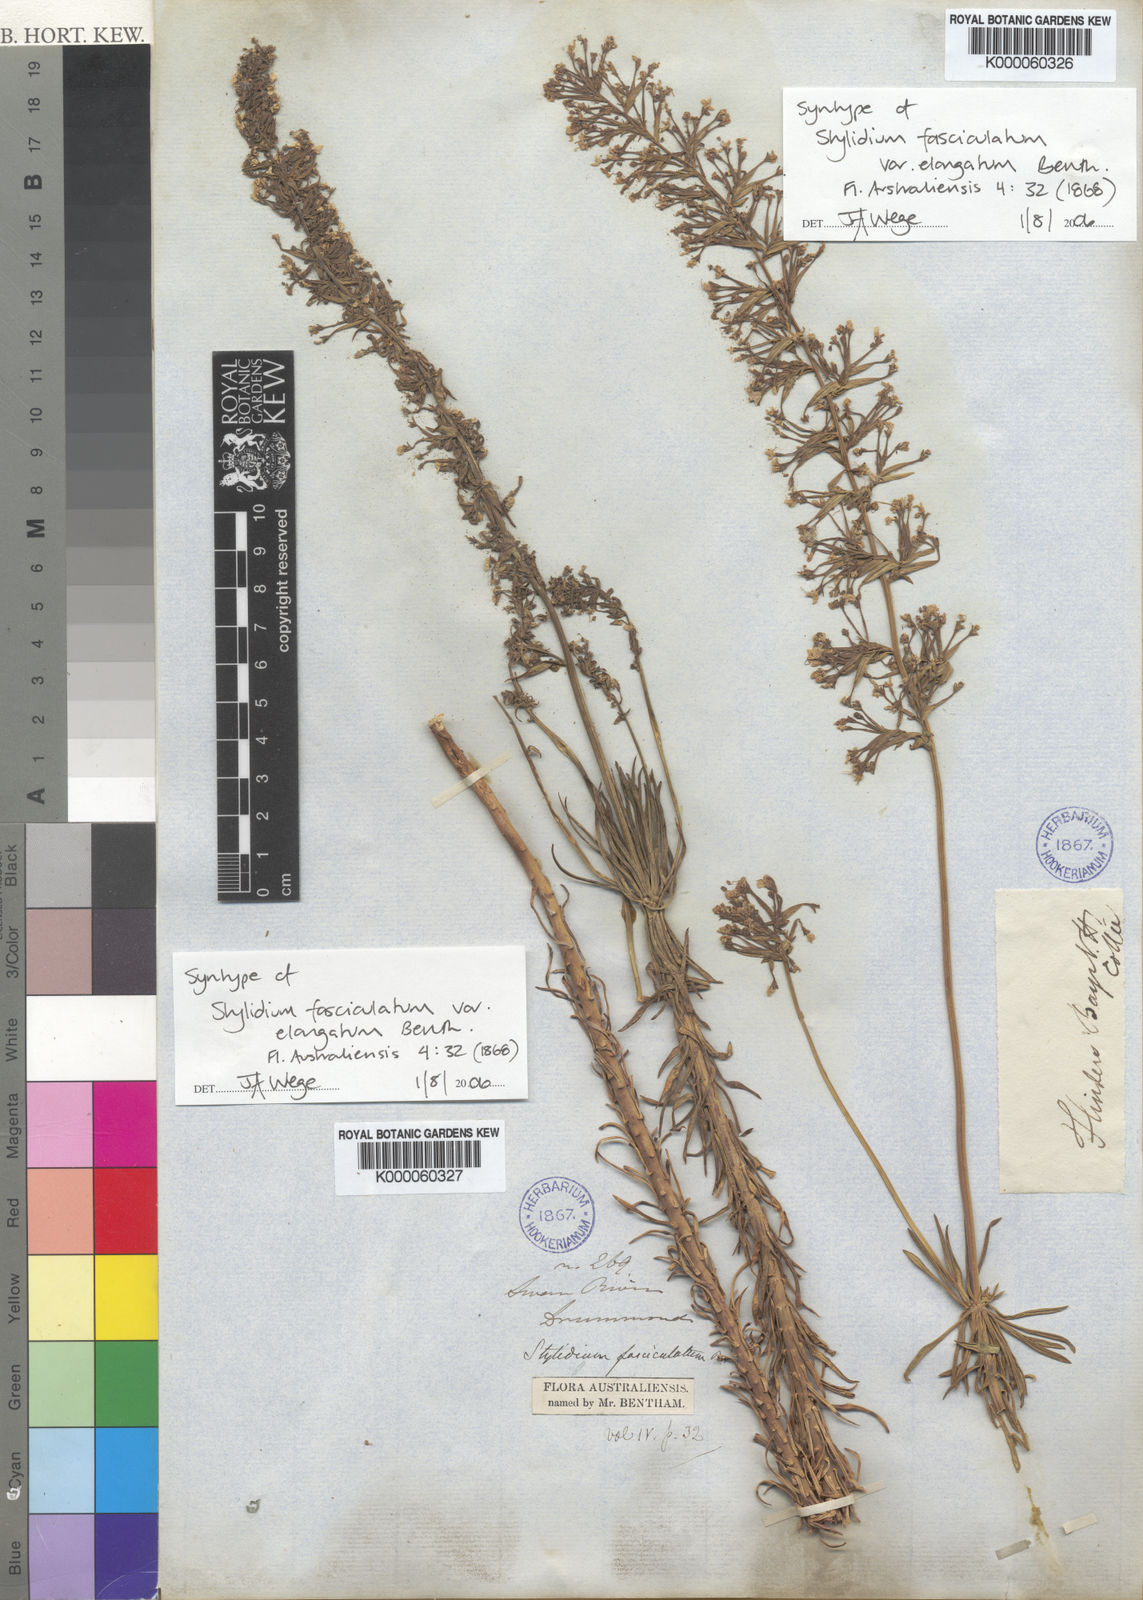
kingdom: Plantae
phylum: Tracheophyta
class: Magnoliopsida
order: Asterales
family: Stylidiaceae
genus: Stylidium
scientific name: Stylidium fasciculatum
